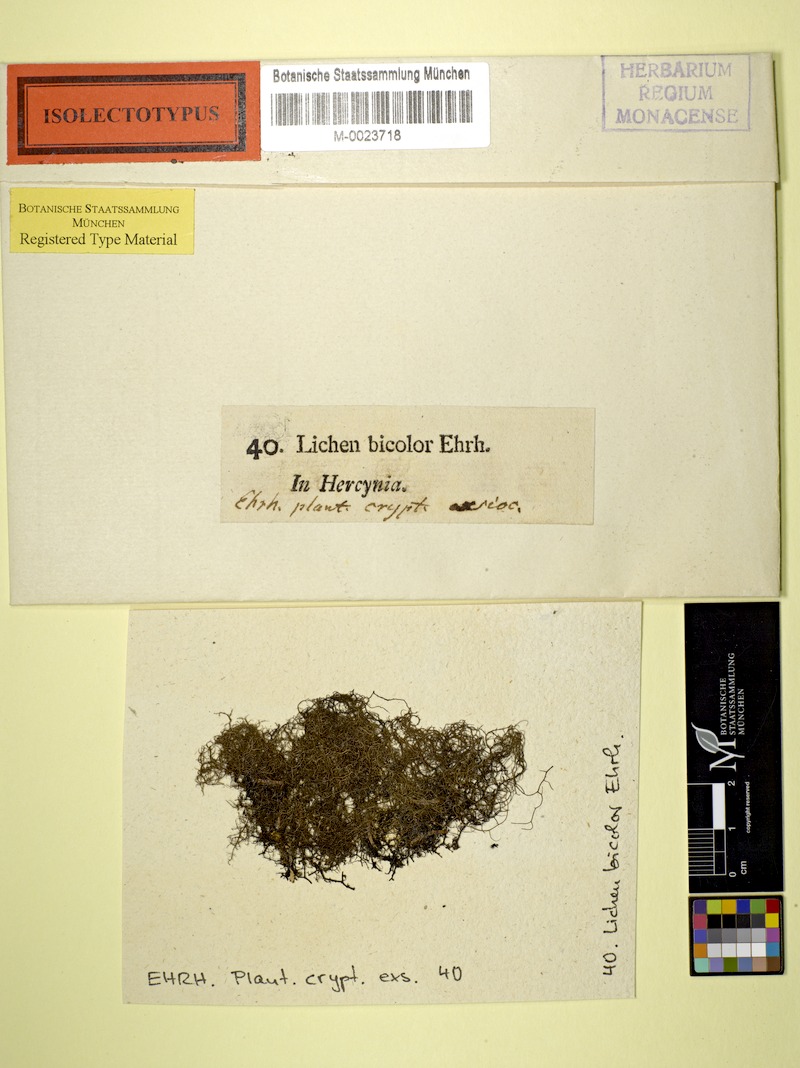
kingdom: Fungi
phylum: Ascomycota
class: Lecanoromycetes
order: Lecanorales
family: Parmeliaceae
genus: Bryoria
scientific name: Bryoria bicolor
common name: Electric horsehair lichen
